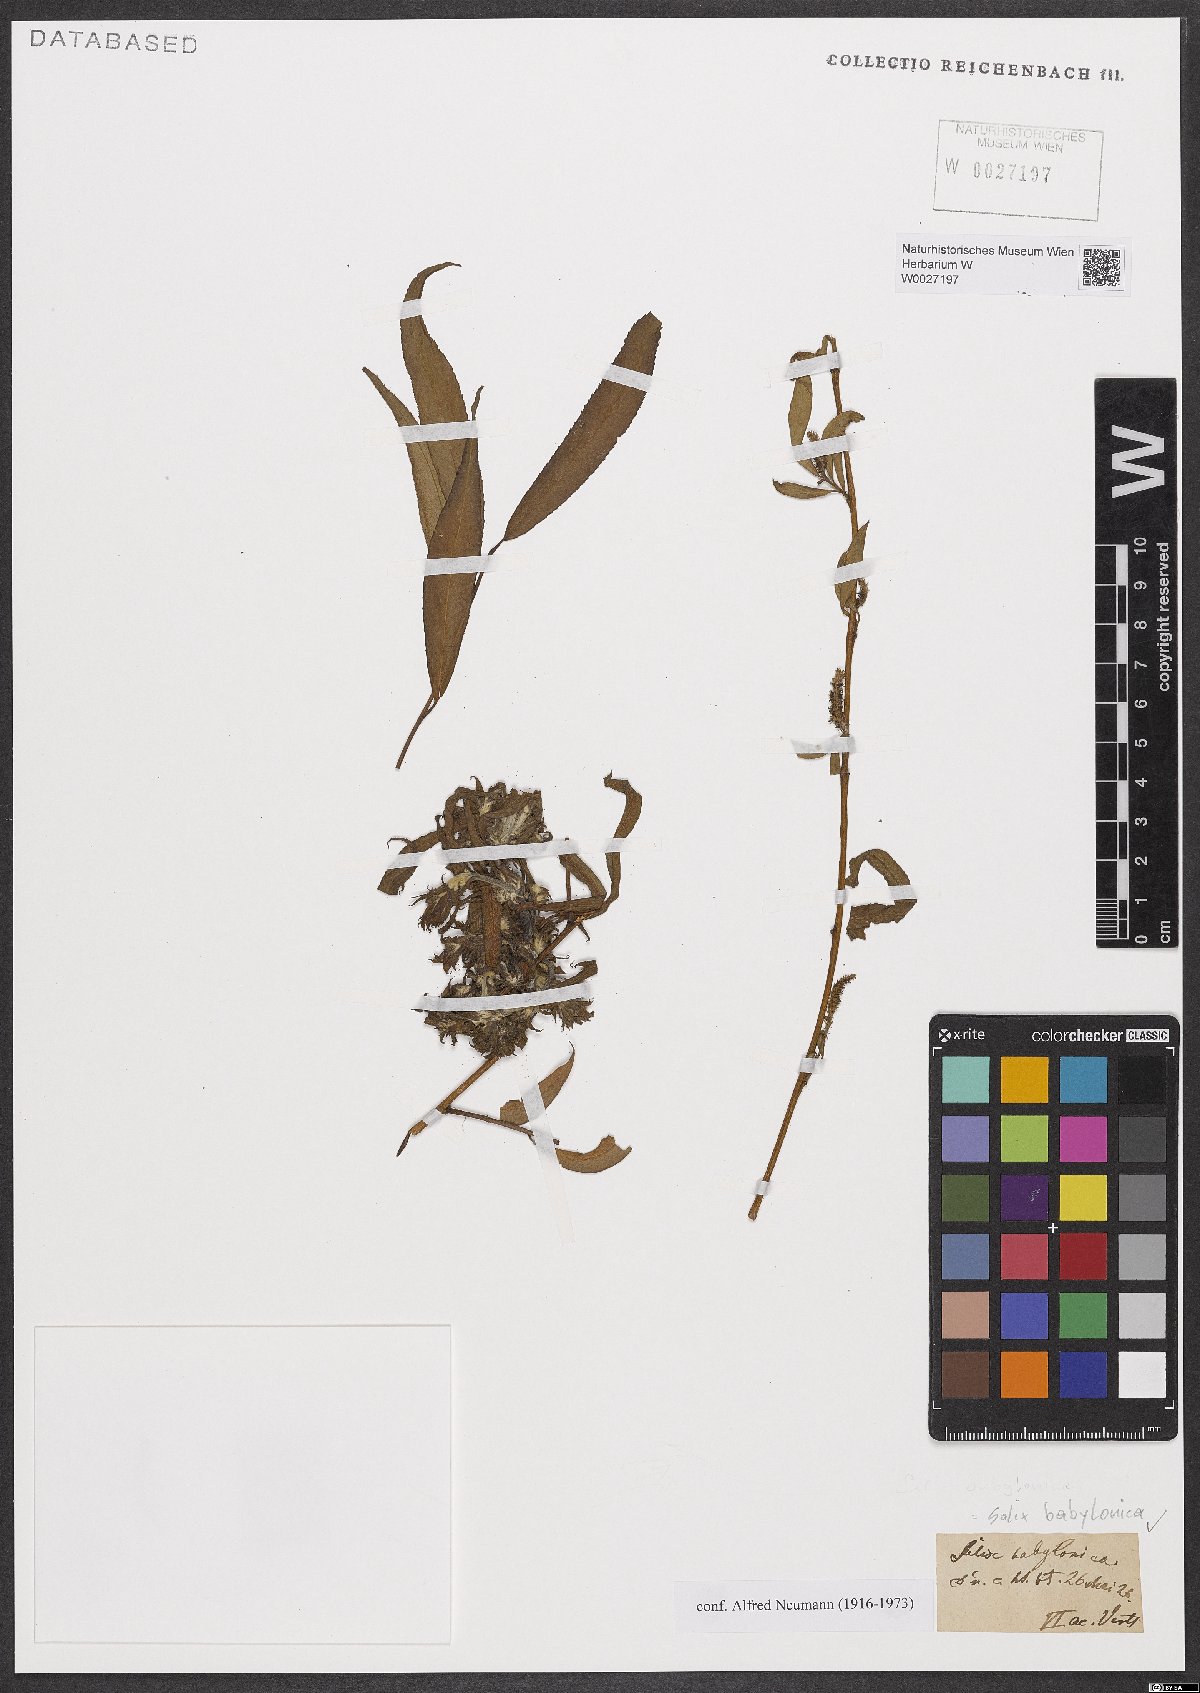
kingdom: Plantae
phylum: Tracheophyta
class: Magnoliopsida
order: Malpighiales
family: Salicaceae
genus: Salix
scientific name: Salix babylonica
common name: Weeping willow
